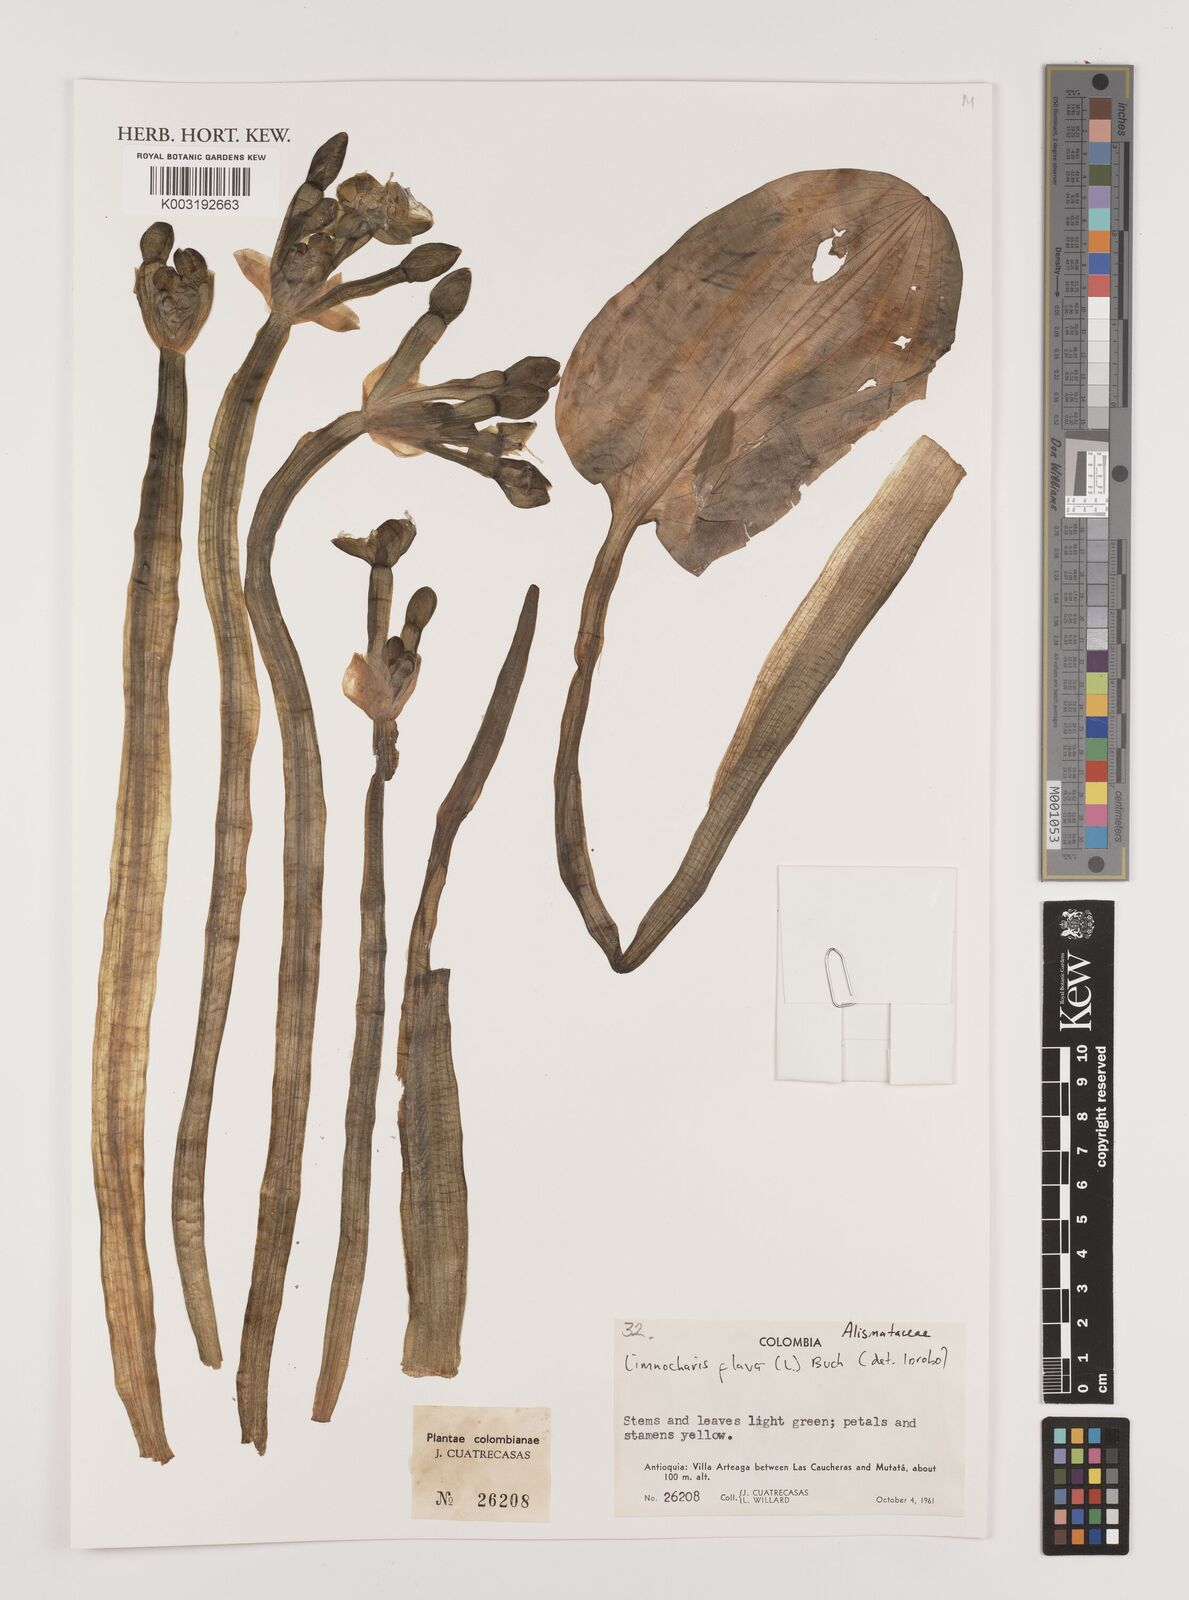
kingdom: Plantae
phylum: Tracheophyta
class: Liliopsida
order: Alismatales
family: Alismataceae
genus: Limnocharis
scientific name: Limnocharis flava
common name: Sawah-flower-rush
